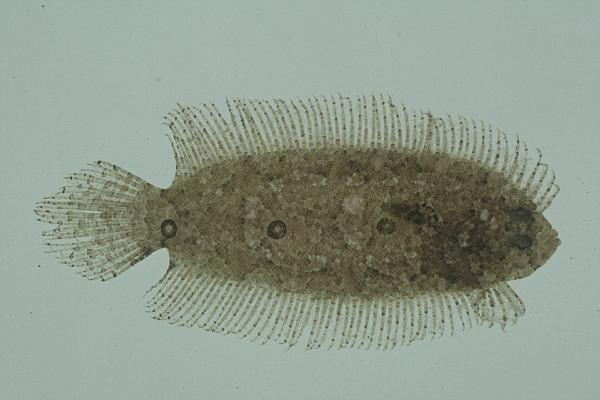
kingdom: Animalia
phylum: Chordata
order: Pleuronectiformes
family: Samaridae
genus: Samariscus
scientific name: Samariscus triocellatus
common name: Three-spot righteye flounder
